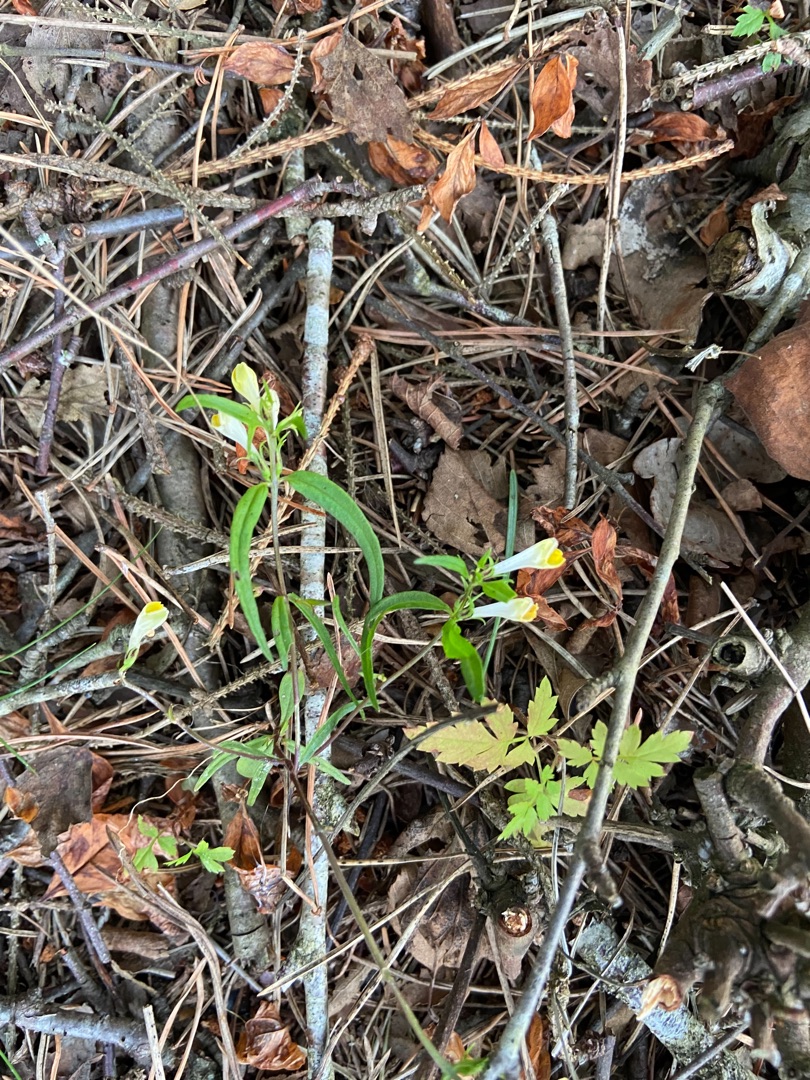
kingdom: Plantae
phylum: Tracheophyta
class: Magnoliopsida
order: Lamiales
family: Orobanchaceae
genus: Melampyrum
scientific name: Melampyrum pratense
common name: Almindelig kohvede
